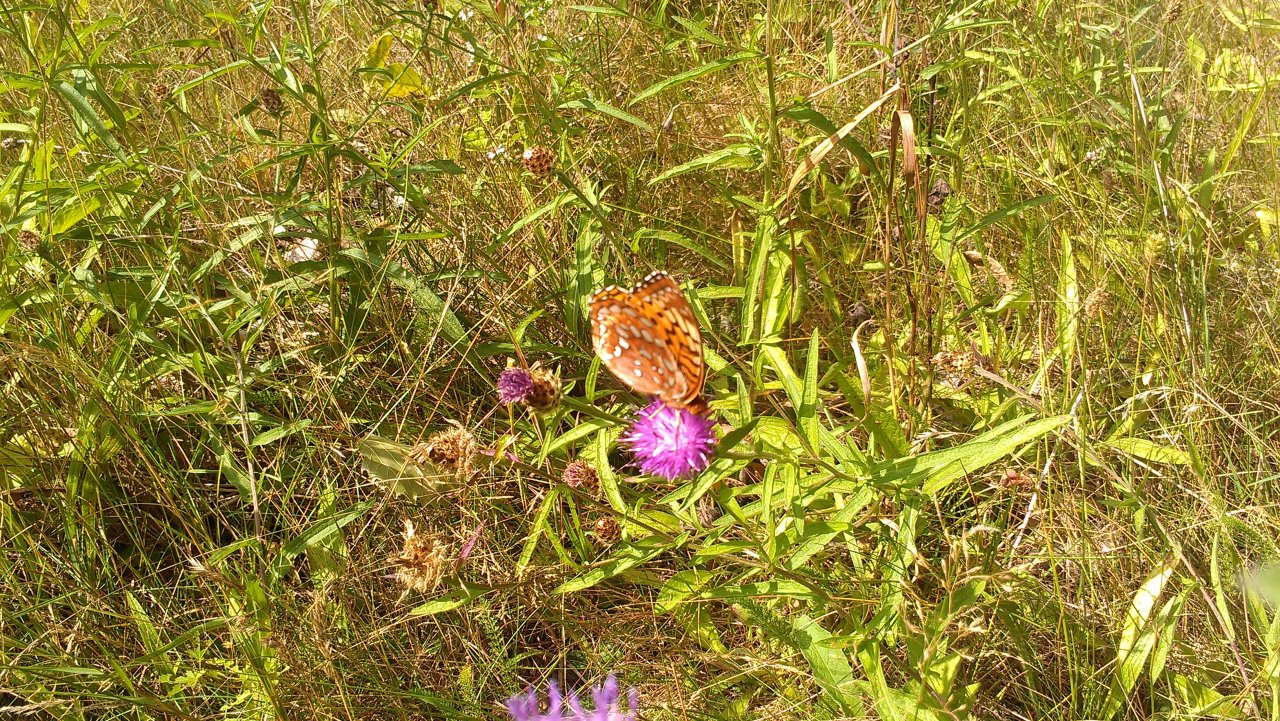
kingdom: Animalia
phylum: Arthropoda
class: Insecta
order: Lepidoptera
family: Nymphalidae
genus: Speyeria
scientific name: Speyeria cybele
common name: Great Spangled Fritillary
